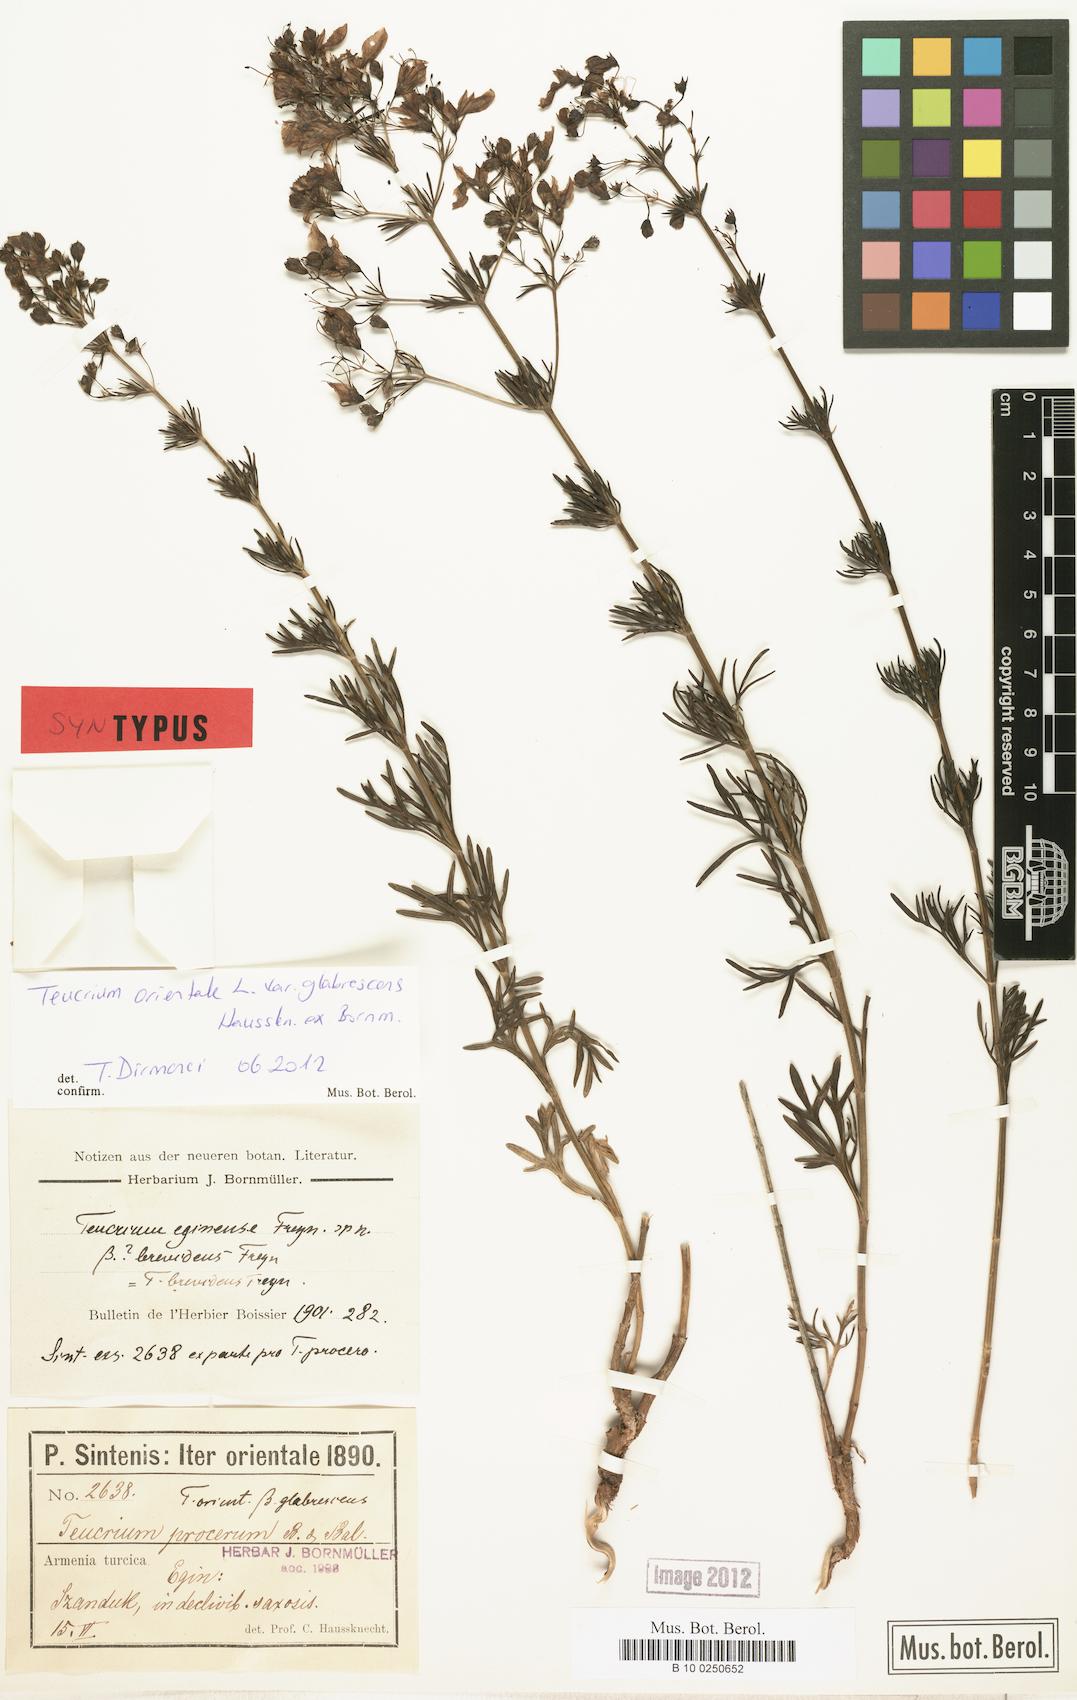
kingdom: Plantae
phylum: Tracheophyta
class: Magnoliopsida
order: Lamiales
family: Lamiaceae
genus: Teucrium
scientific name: Teucrium orientale
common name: Oriental germander
